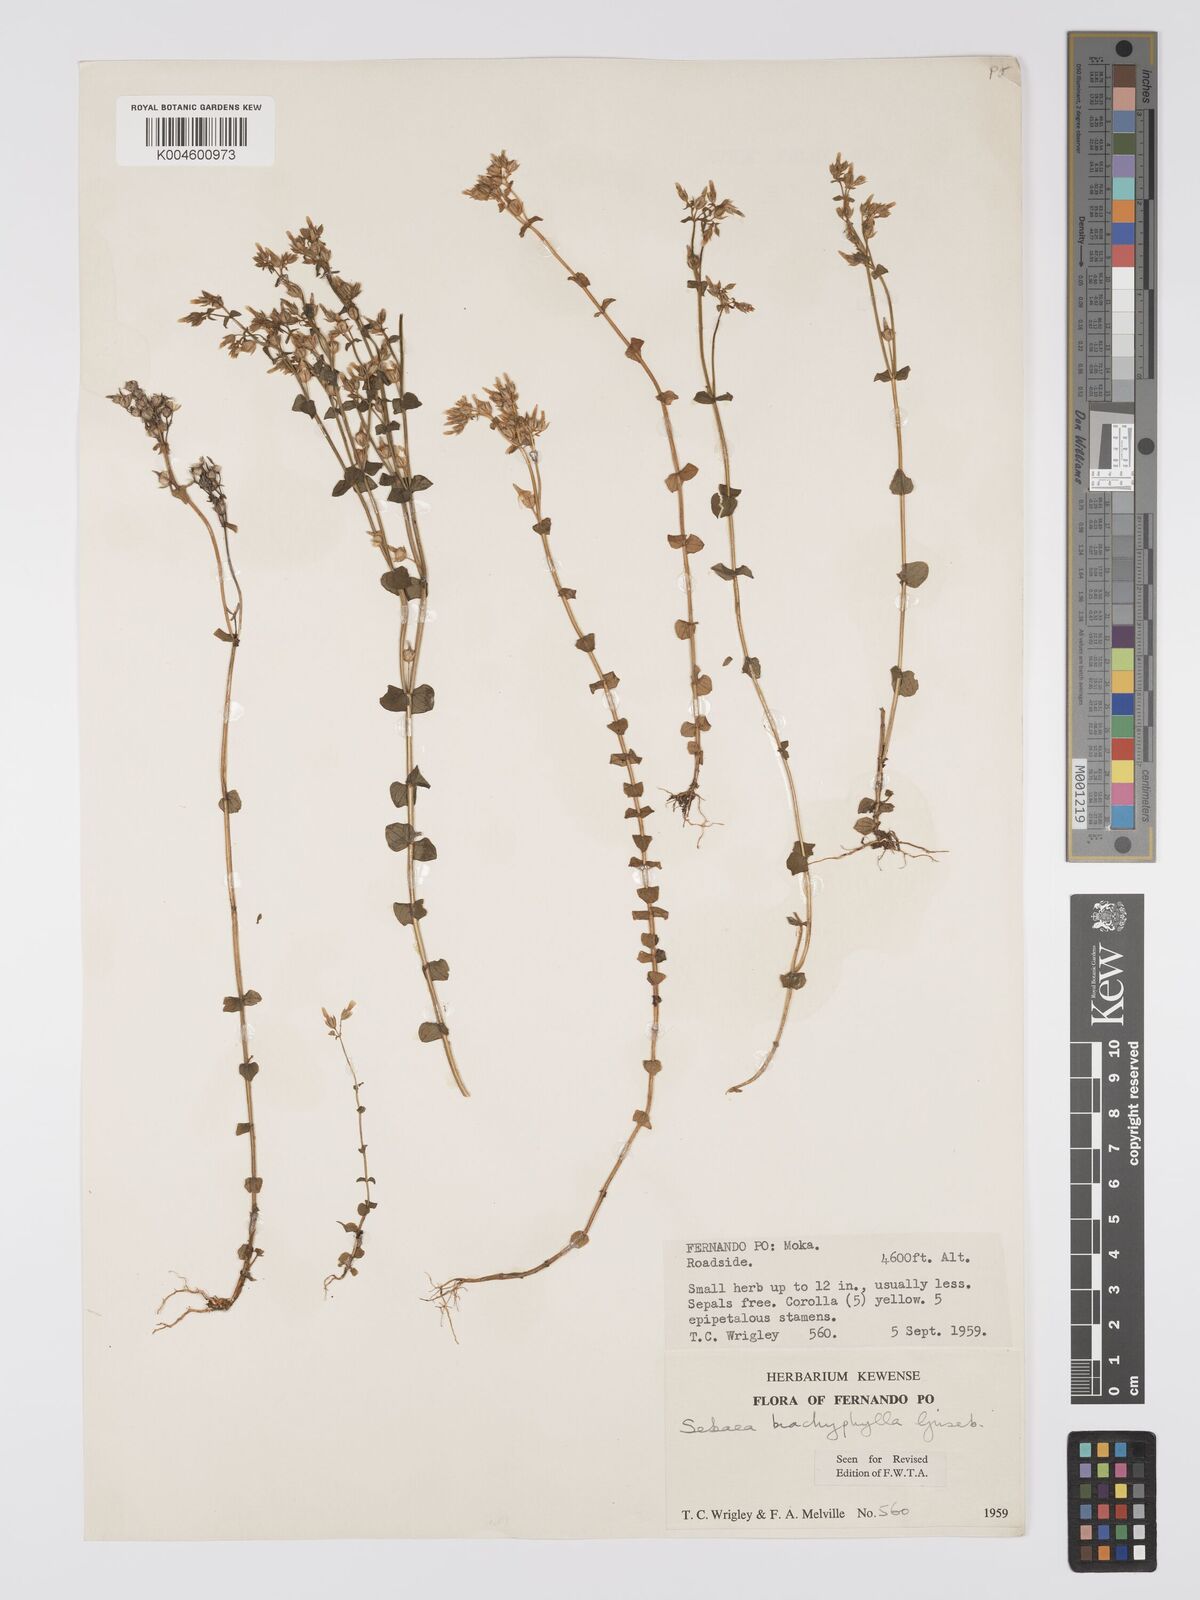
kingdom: Plantae
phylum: Tracheophyta
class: Magnoliopsida
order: Gentianales
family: Gentianaceae
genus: Sebaea
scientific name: Sebaea brachyphylla
